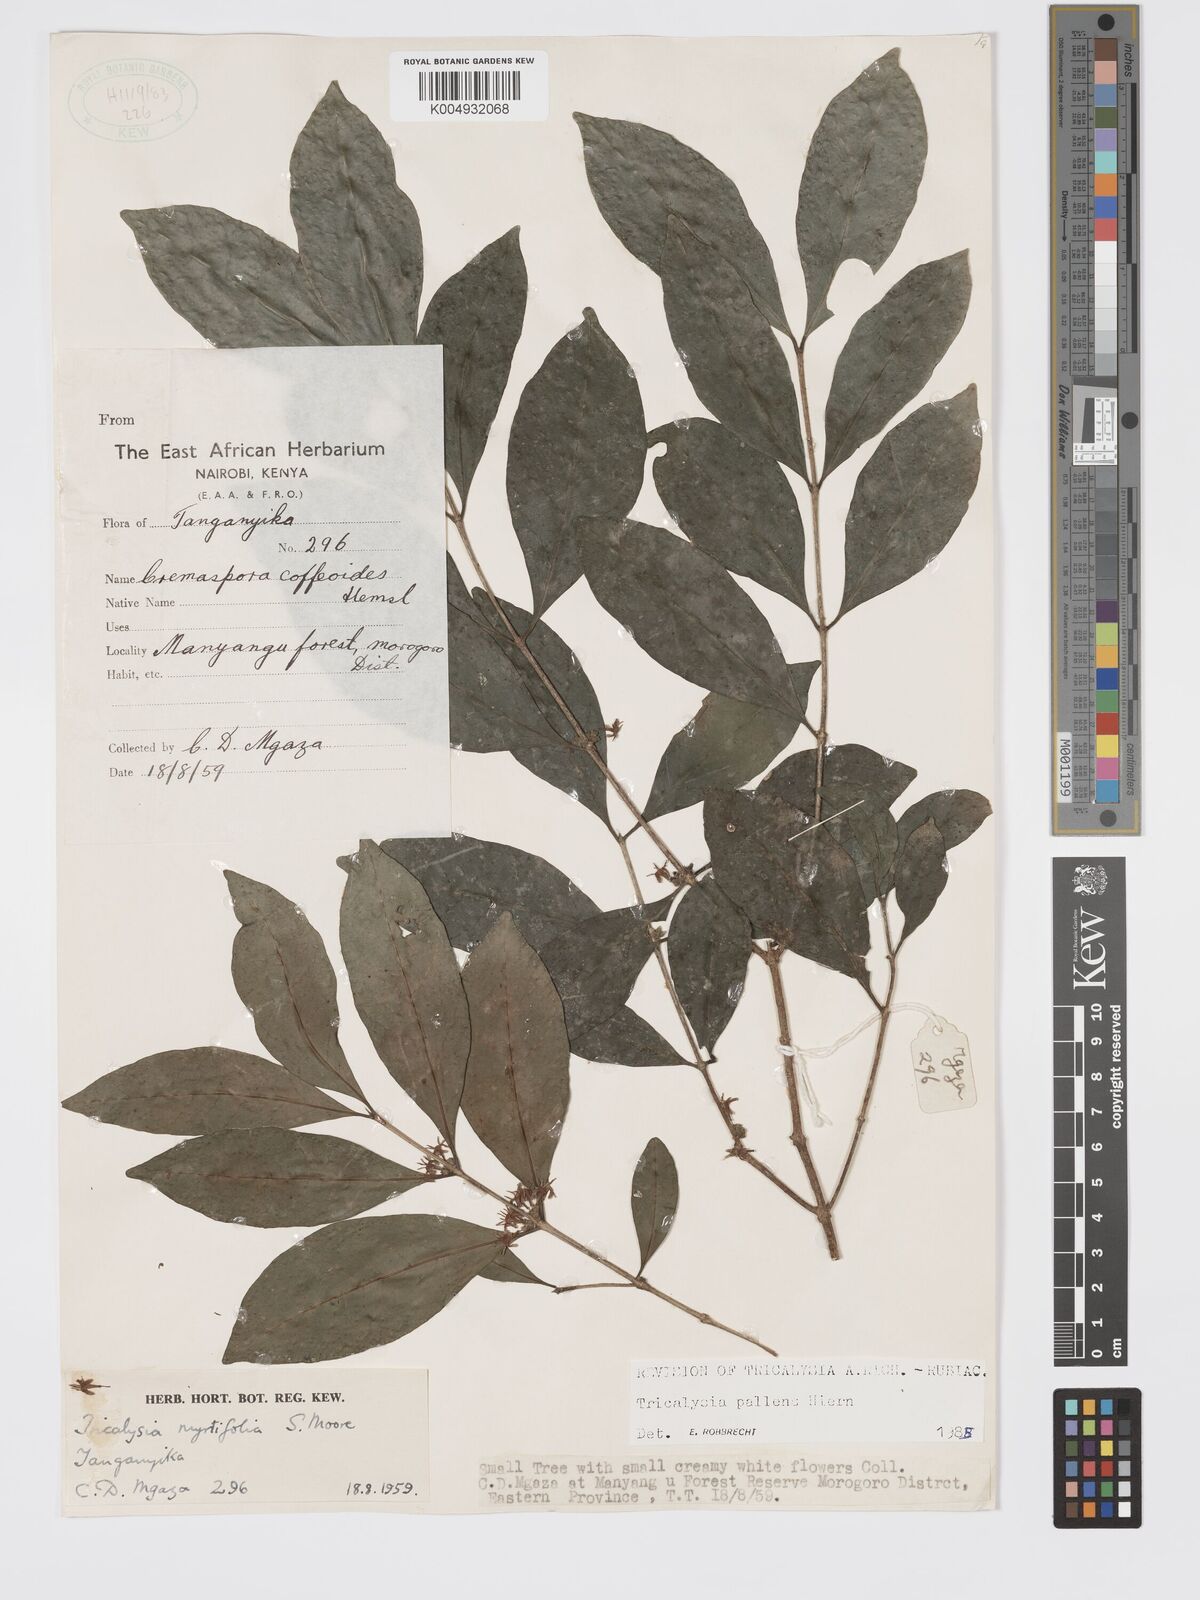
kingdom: Plantae
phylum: Tracheophyta
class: Magnoliopsida
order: Gentianales
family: Rubiaceae
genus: Tricalysia
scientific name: Tricalysia pallens
